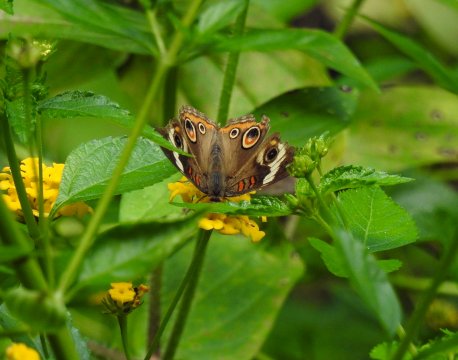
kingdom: Animalia
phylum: Arthropoda
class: Insecta
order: Lepidoptera
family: Nymphalidae
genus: Junonia
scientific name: Junonia coenia
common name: Common Buckeye
